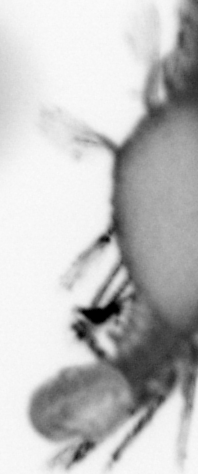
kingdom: Animalia
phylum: Annelida
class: Polychaeta
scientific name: Polychaeta
